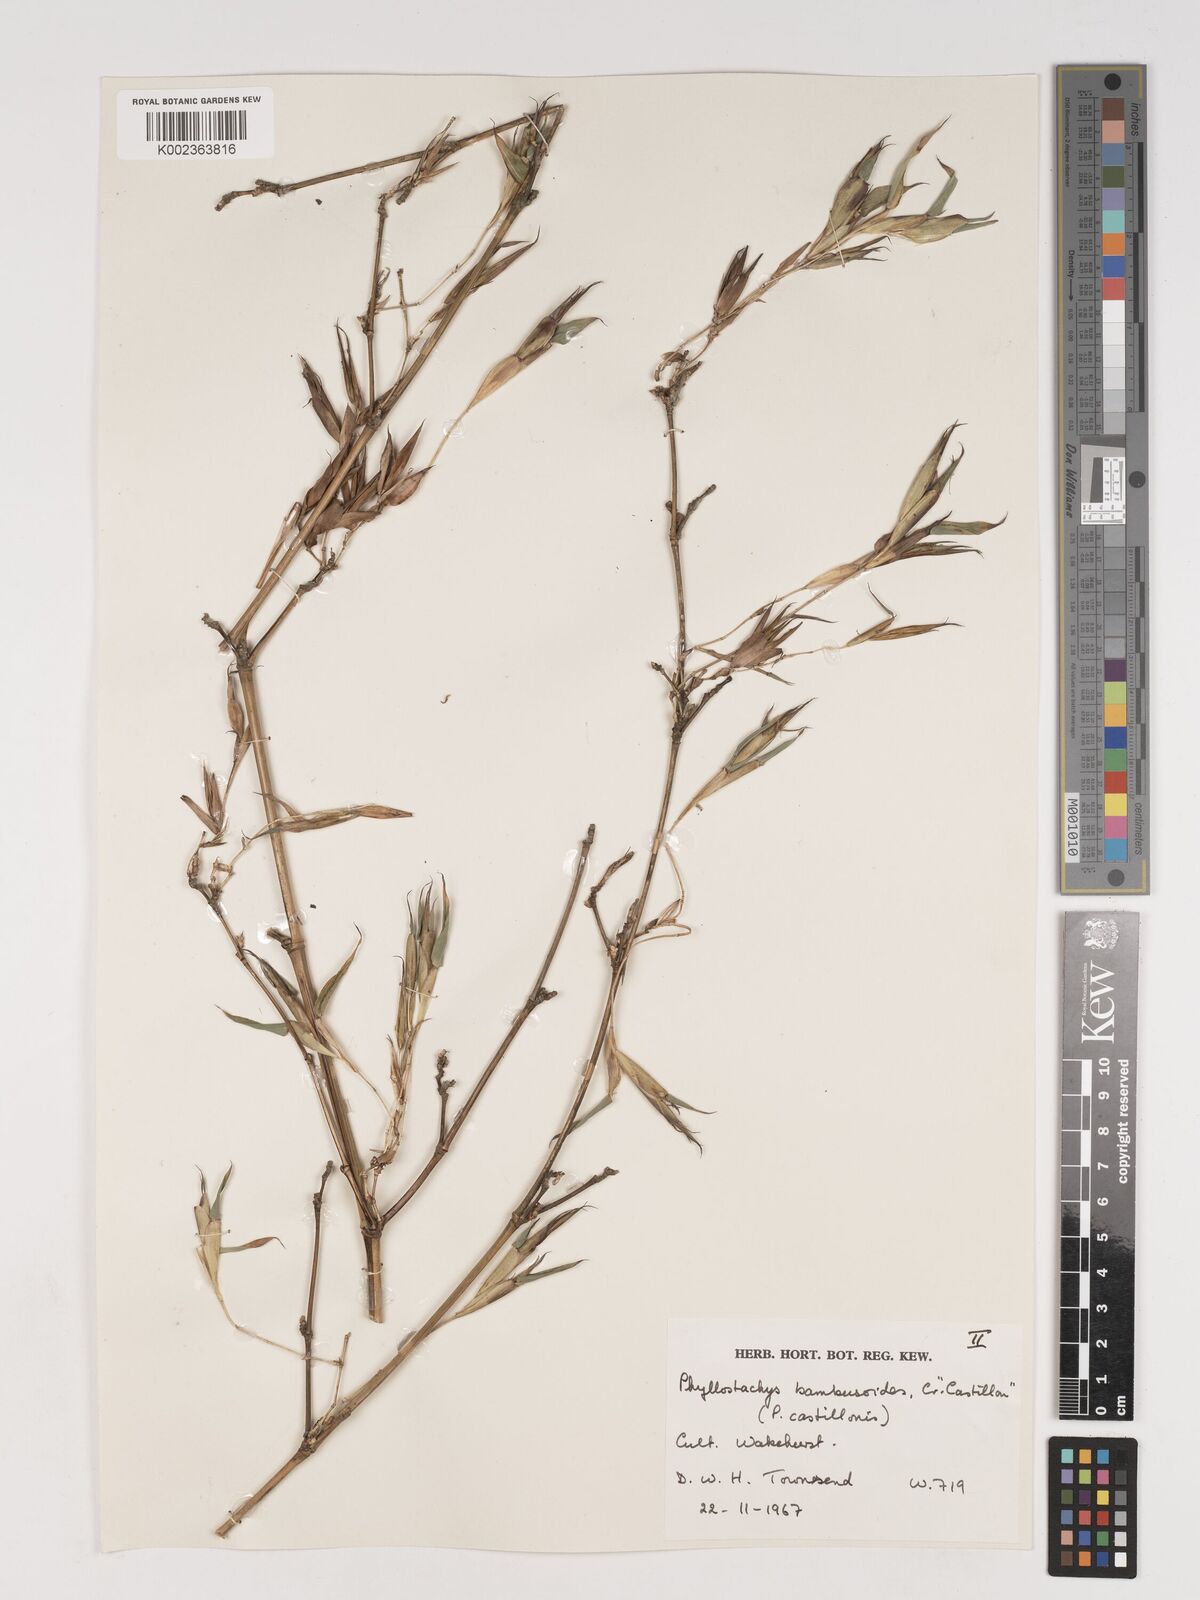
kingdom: Plantae
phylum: Tracheophyta
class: Liliopsida
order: Poales
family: Poaceae
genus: Phyllostachys
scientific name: Phyllostachys reticulata
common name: Bamboo
